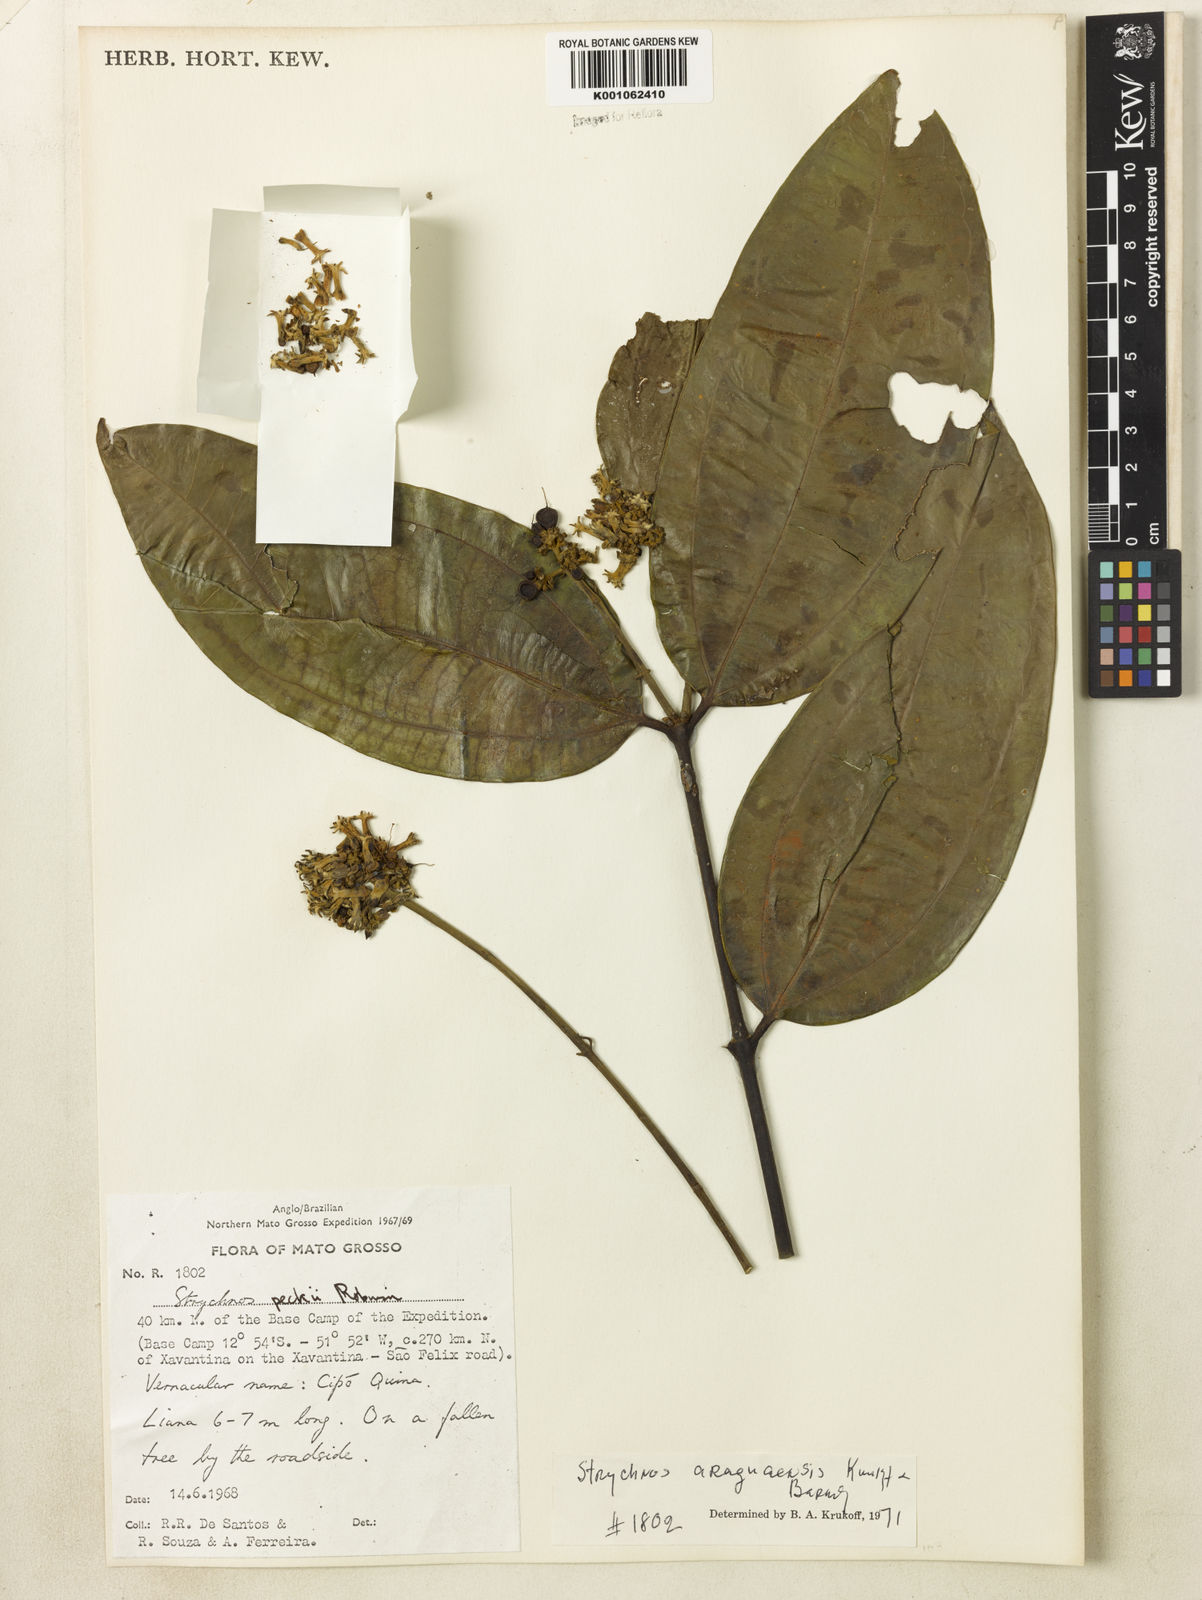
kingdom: Plantae
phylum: Tracheophyta
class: Magnoliopsida
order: Gentianales
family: Loganiaceae
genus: Strychnos
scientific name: Strychnos araguaensis
